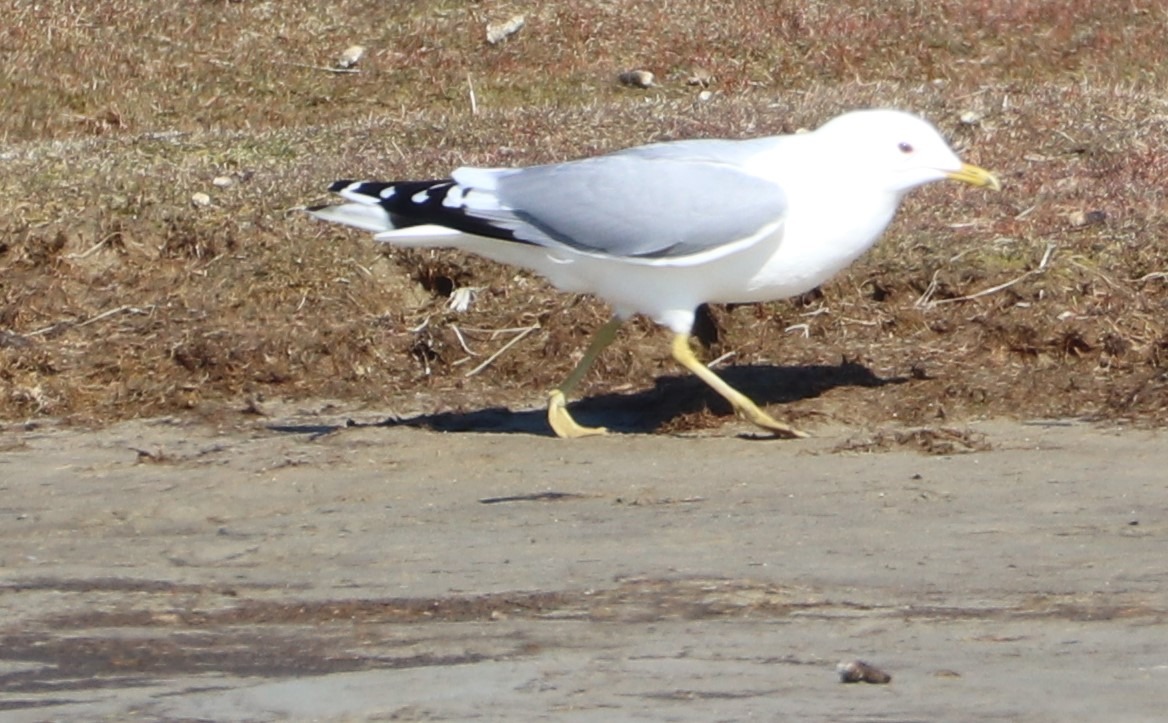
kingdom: Animalia
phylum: Chordata
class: Aves
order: Charadriiformes
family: Laridae
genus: Larus
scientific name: Larus canus
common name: Stormmåge
